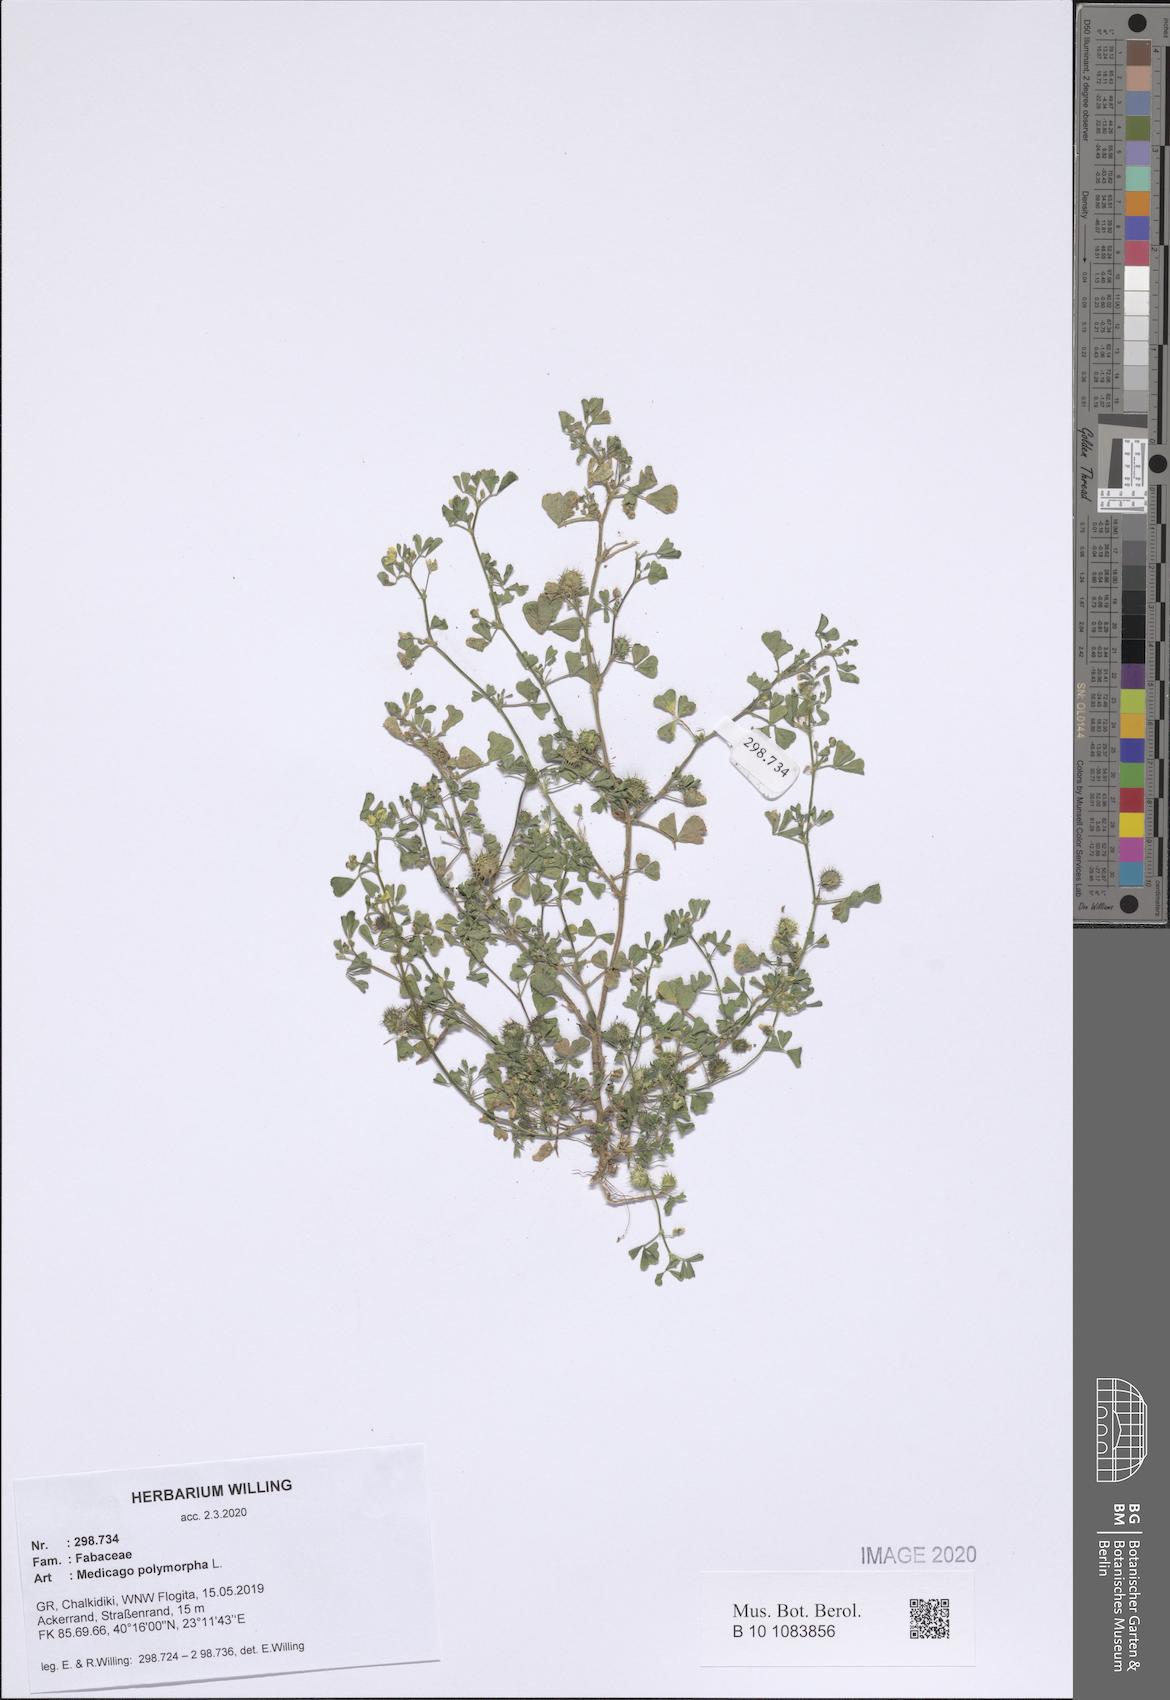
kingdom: Plantae
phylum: Tracheophyta
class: Magnoliopsida
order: Fabales
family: Fabaceae
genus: Medicago
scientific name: Medicago polymorpha
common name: Burclover
